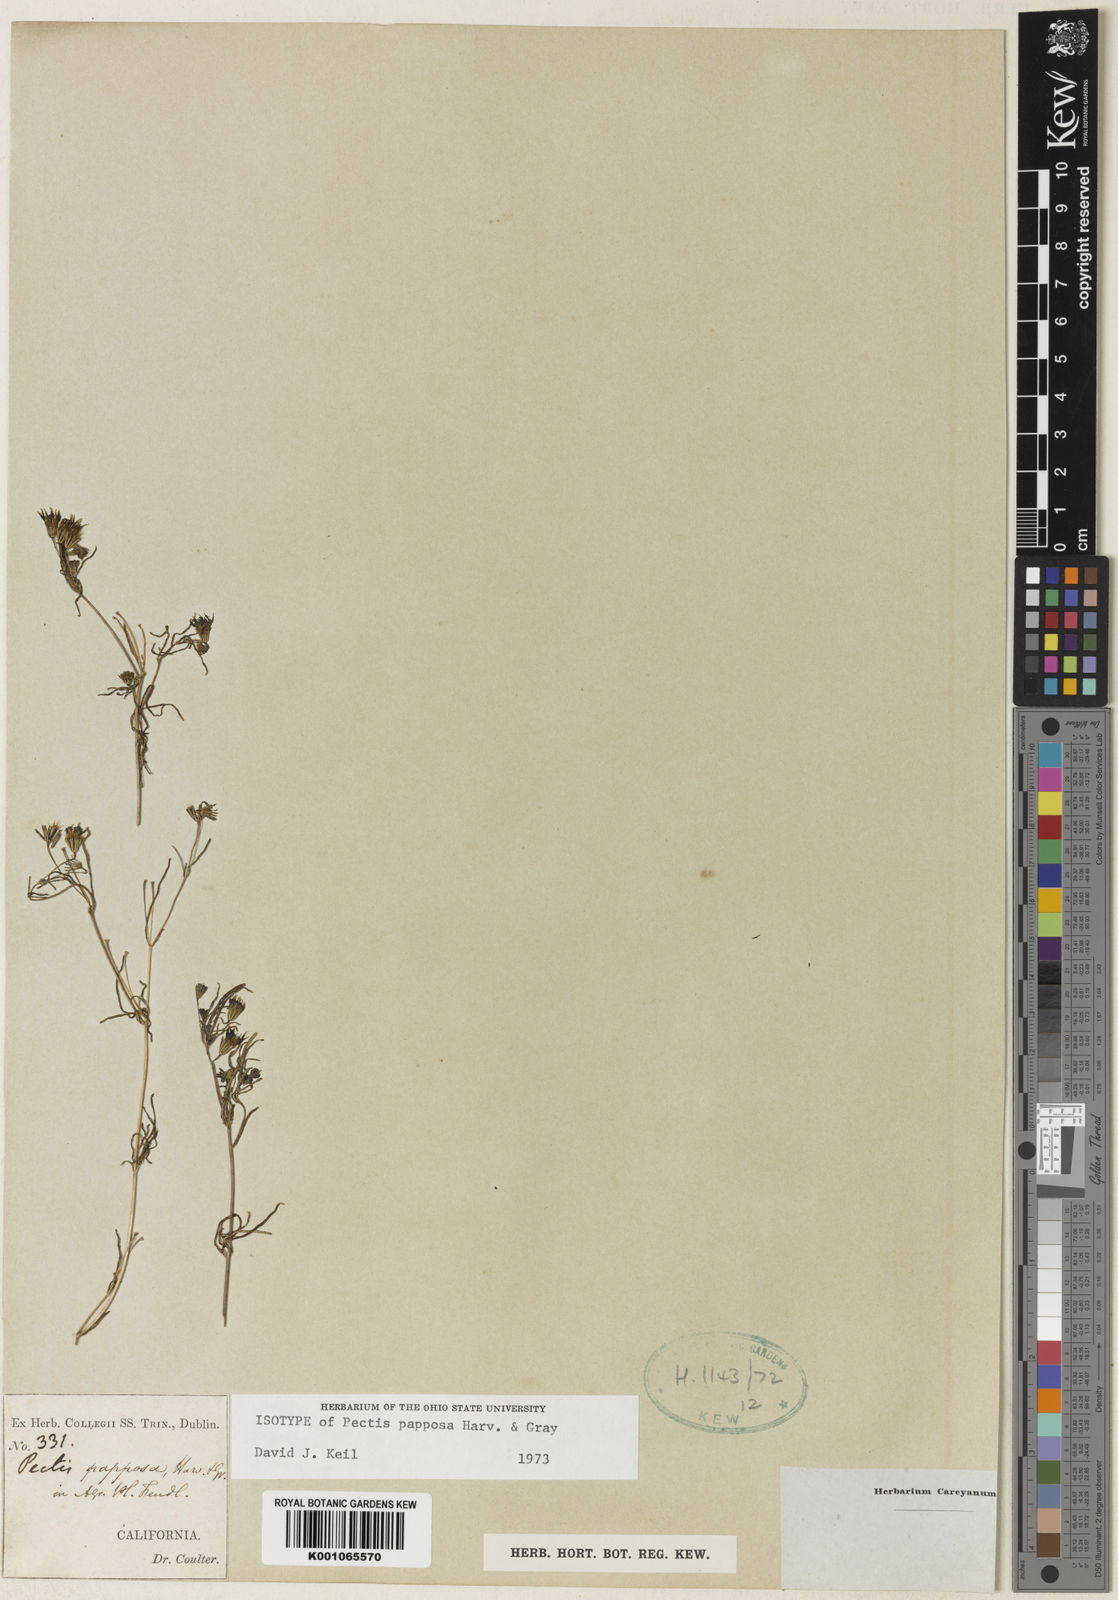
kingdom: Plantae
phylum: Tracheophyta
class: Magnoliopsida
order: Asterales
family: Asteraceae
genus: Pectis
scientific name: Pectis papposa
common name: Many-bristle chinchweed
